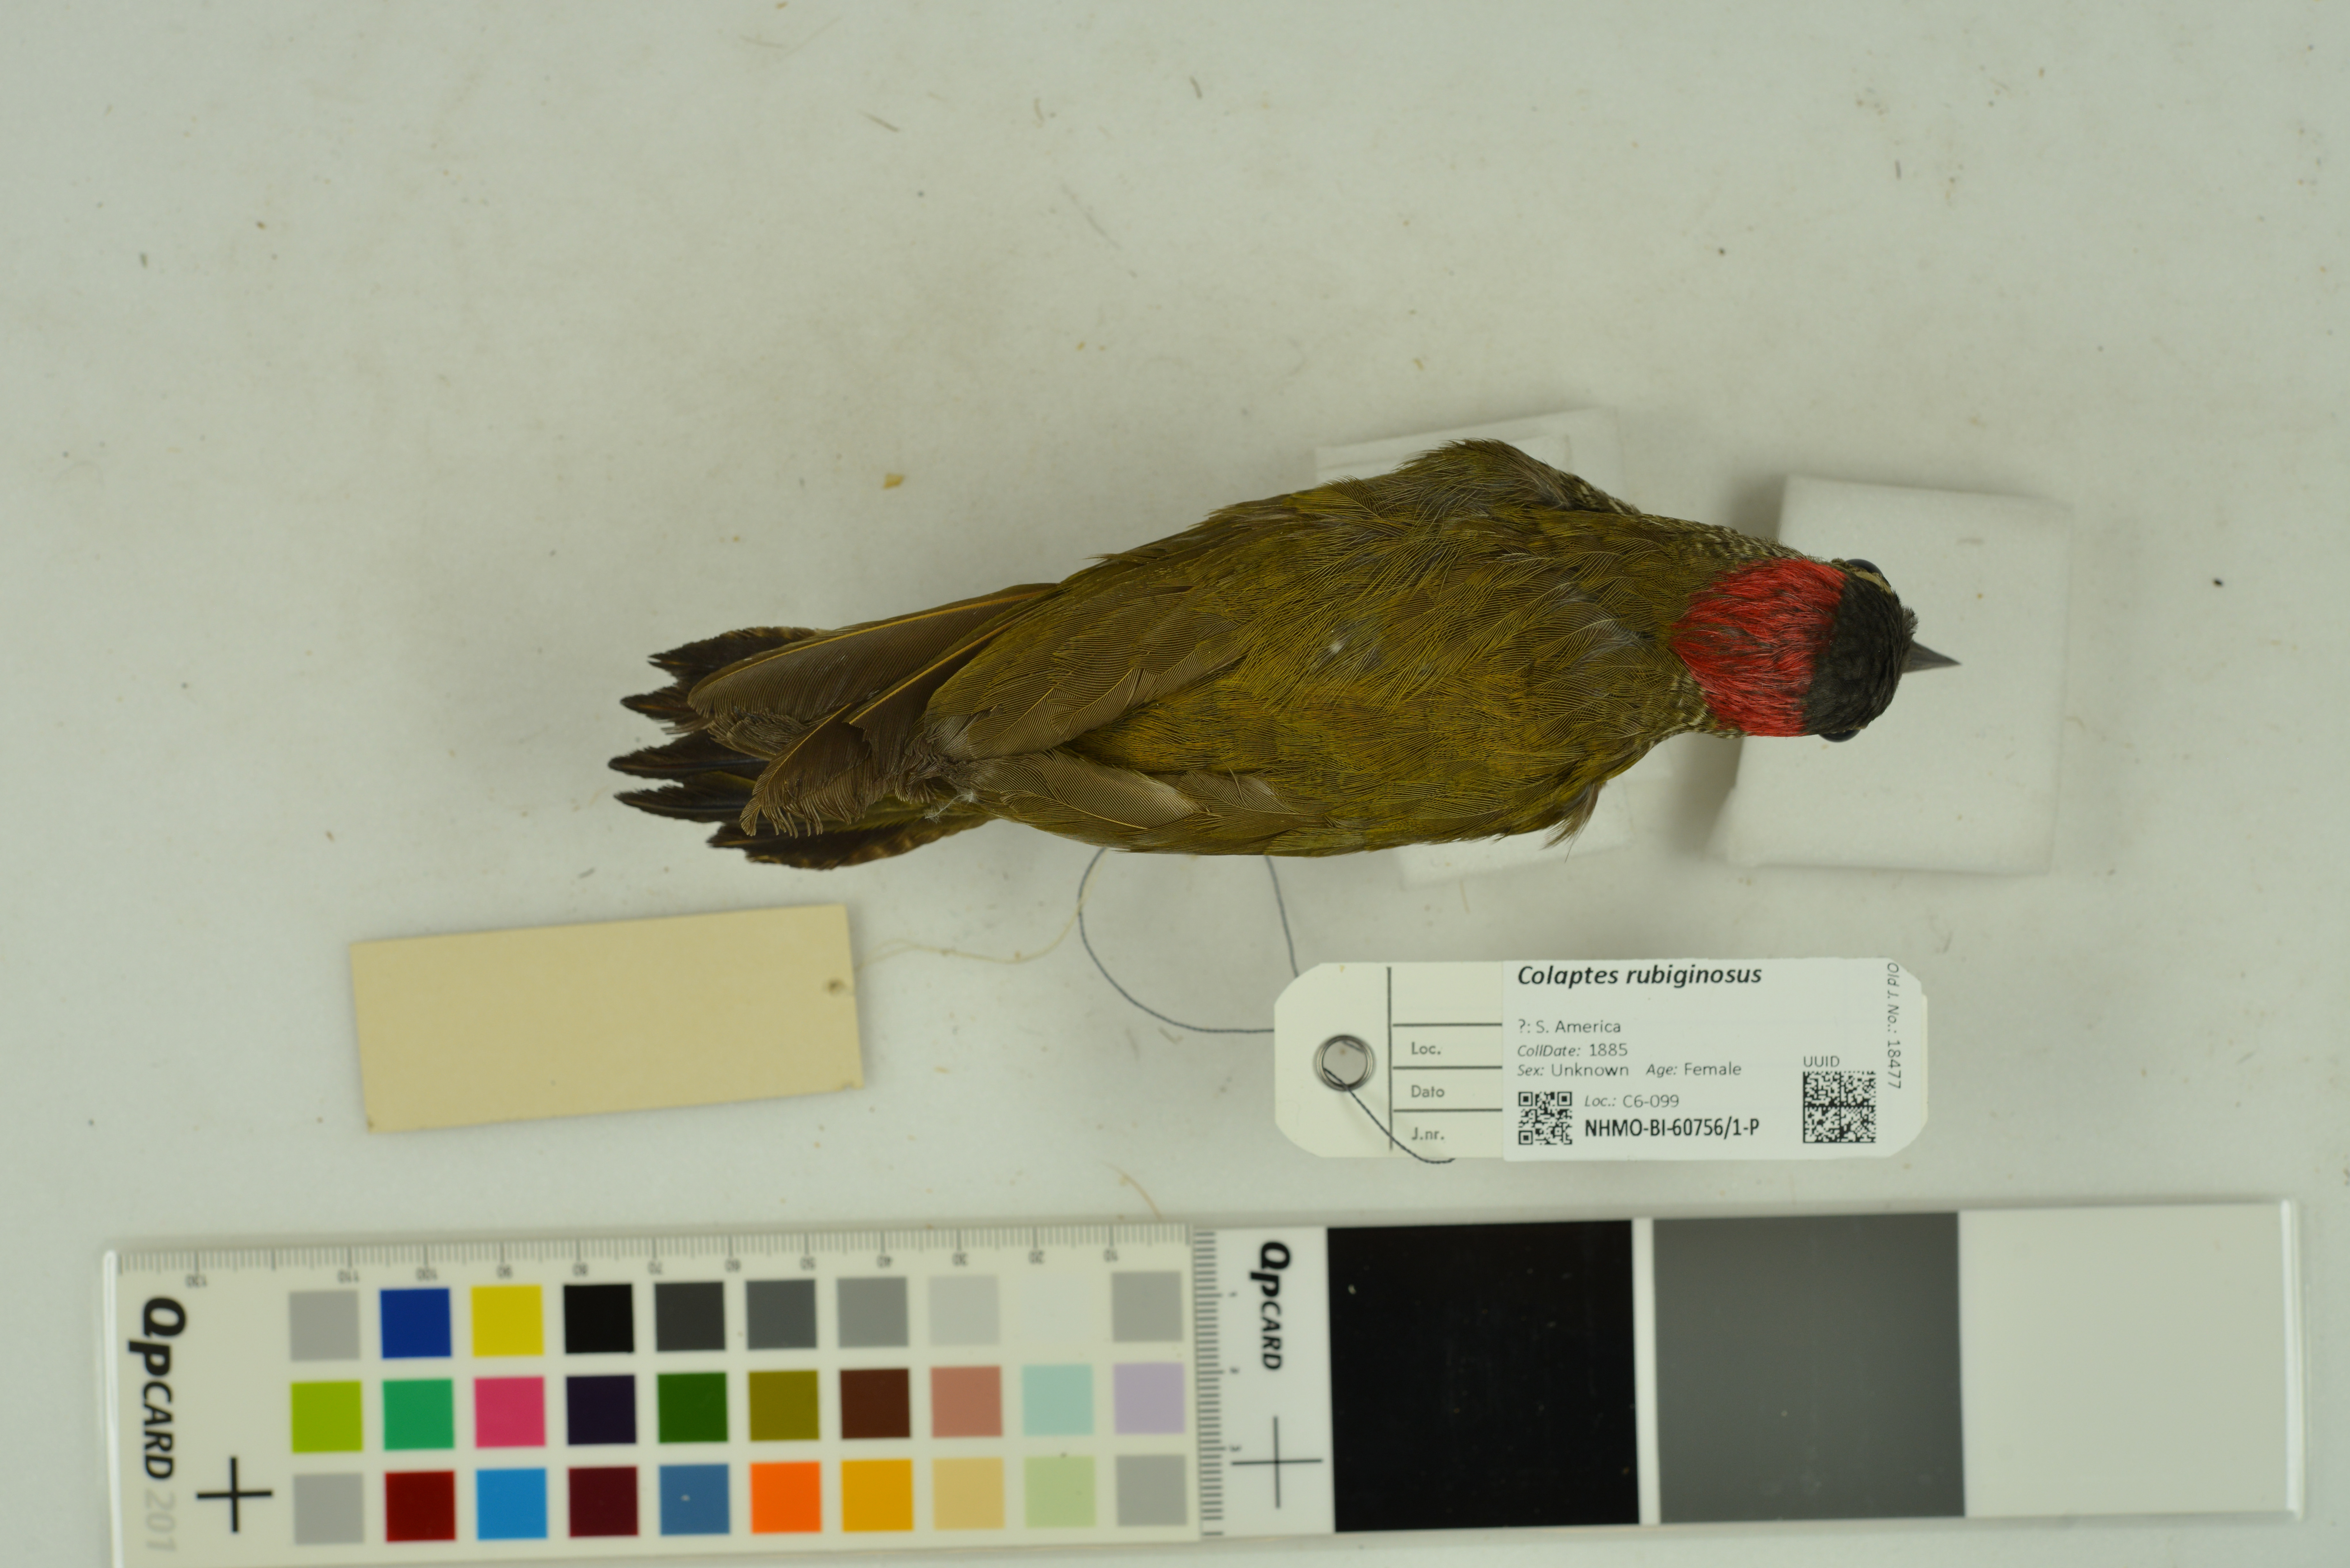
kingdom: Animalia
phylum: Chordata
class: Aves
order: Piciformes
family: Picidae
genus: Colaptes
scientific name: Colaptes rubiginosus
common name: Golden-olive woodpecker
